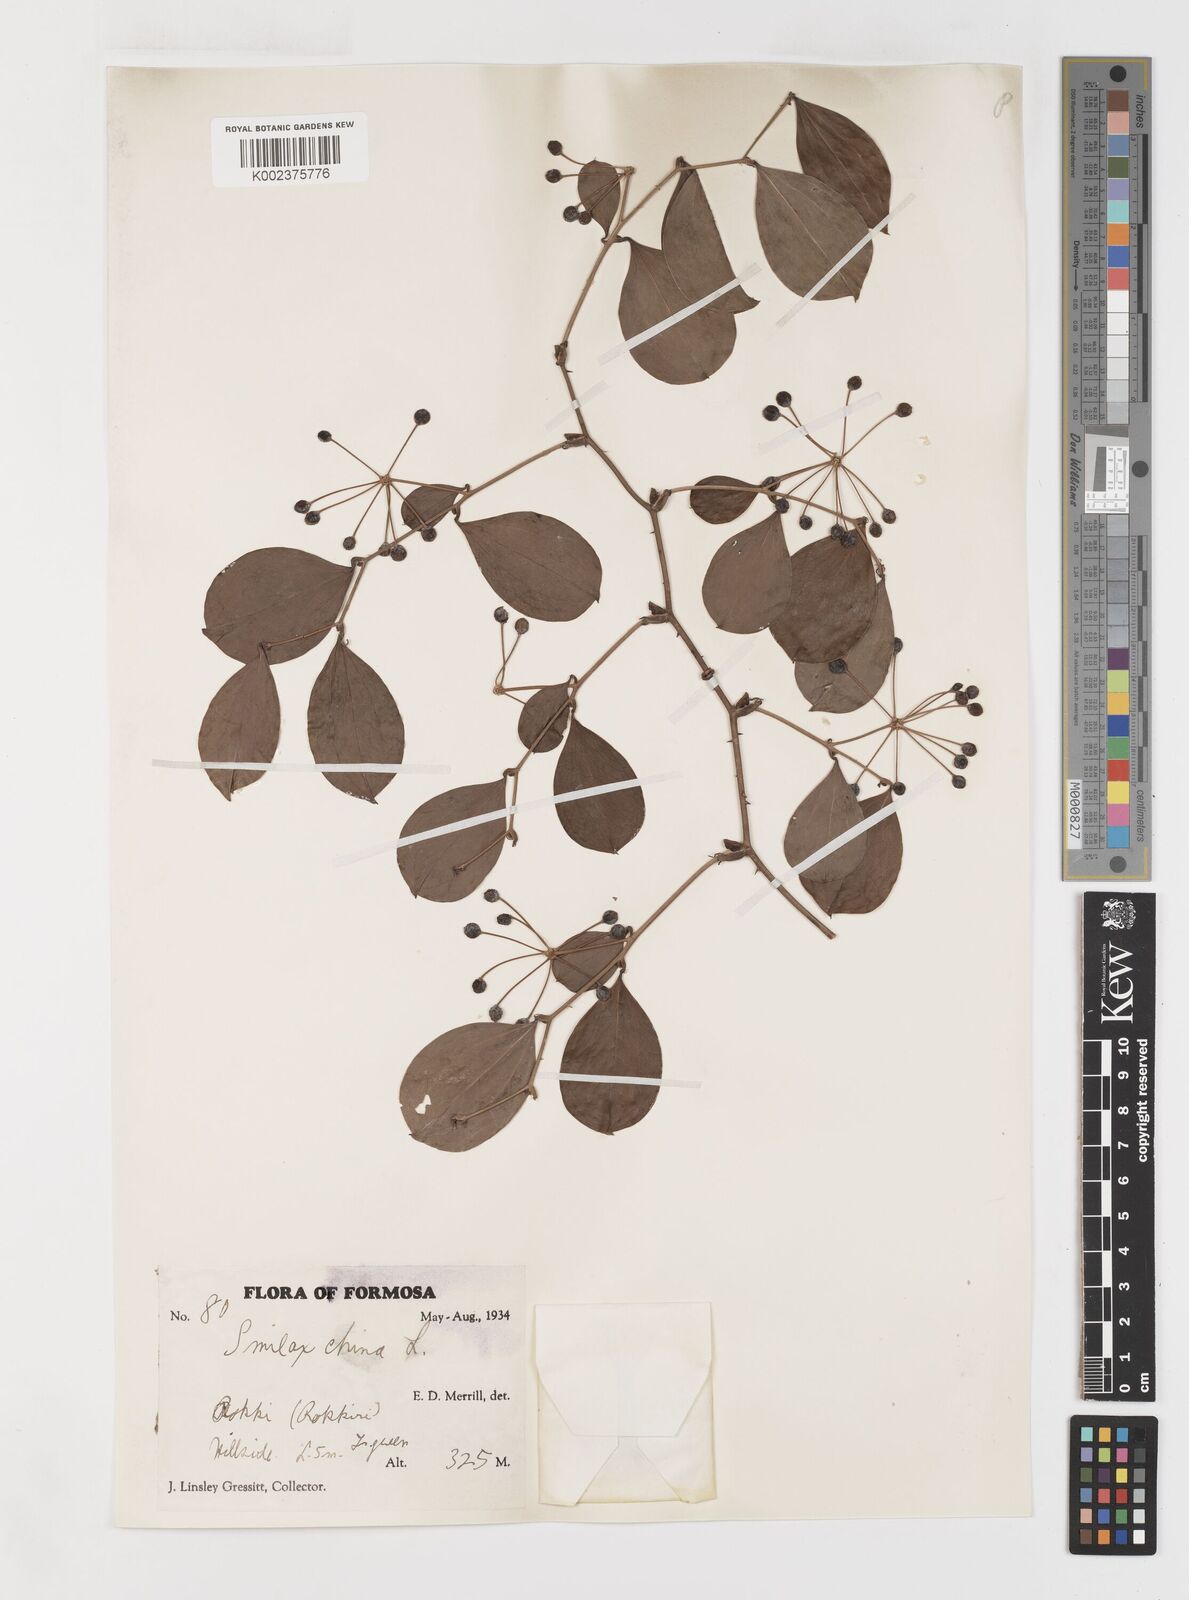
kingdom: Plantae
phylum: Tracheophyta
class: Liliopsida
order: Liliales
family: Smilacaceae
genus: Smilax
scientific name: Smilax china
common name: Chinaroot
